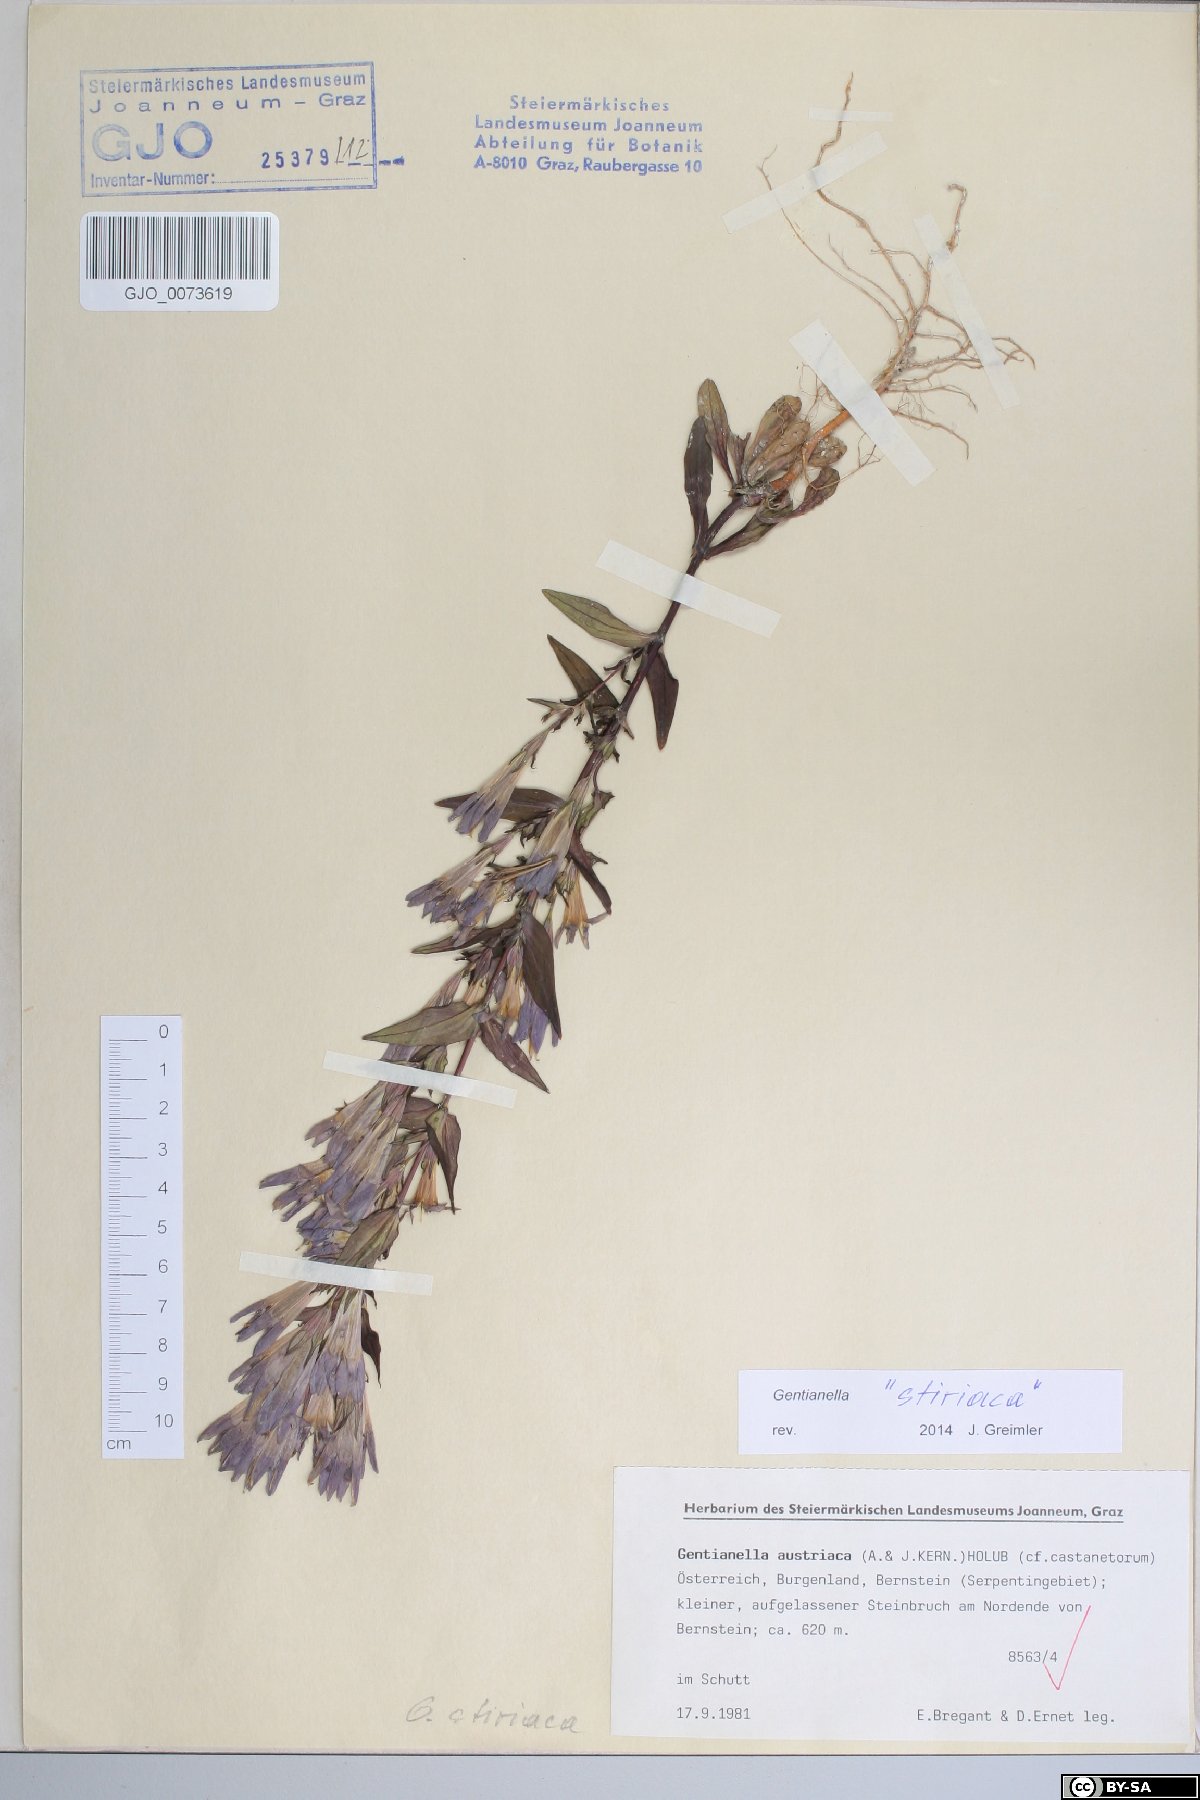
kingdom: Plantae
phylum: Tracheophyta
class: Magnoliopsida
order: Gentianales
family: Gentianaceae
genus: Gentianella
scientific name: Gentianella styriaca
